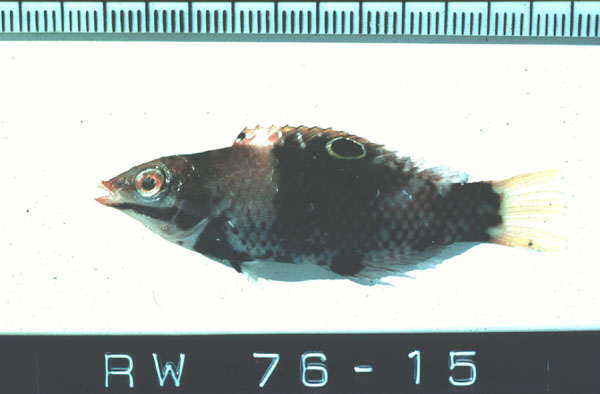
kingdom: Animalia
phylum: Chordata
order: Perciformes
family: Labridae
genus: Halichoeres
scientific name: Halichoeres hortulanus
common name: Checkerboard wrasse
